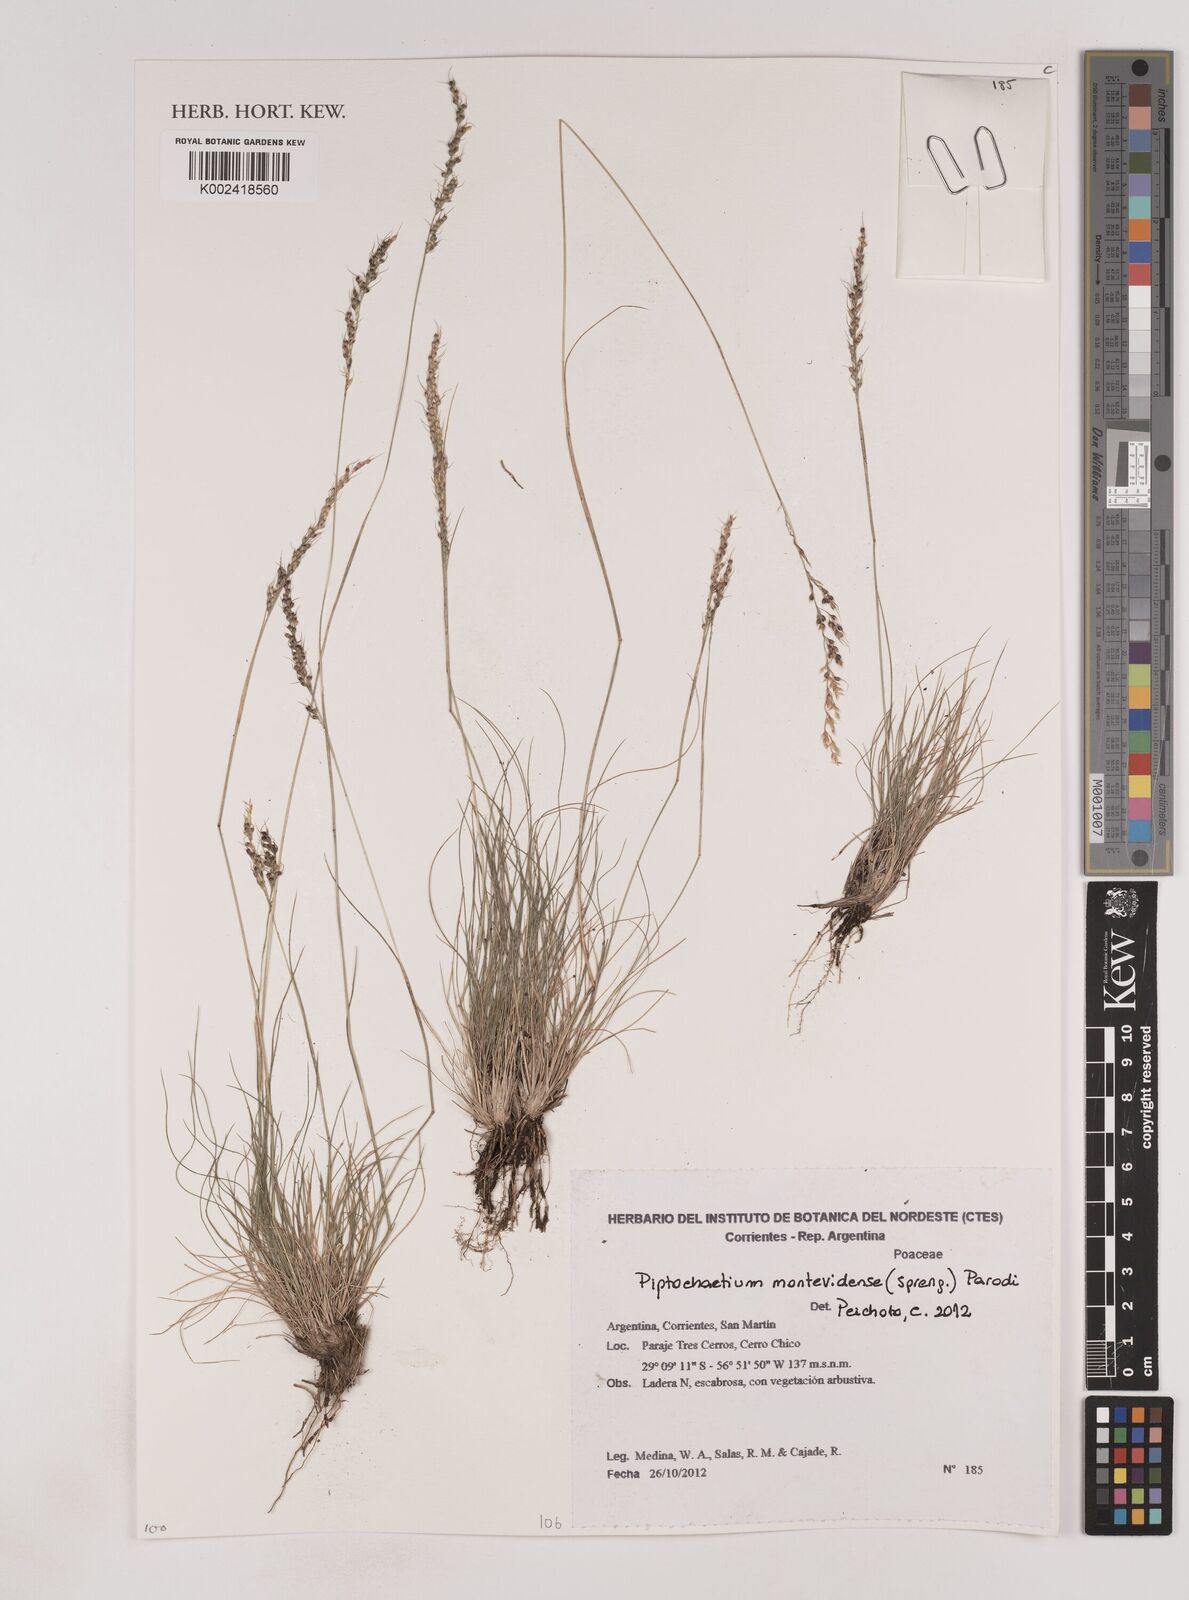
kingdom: Plantae
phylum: Tracheophyta
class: Liliopsida
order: Poales
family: Poaceae
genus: Piptochaetium
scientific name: Piptochaetium montevidense
